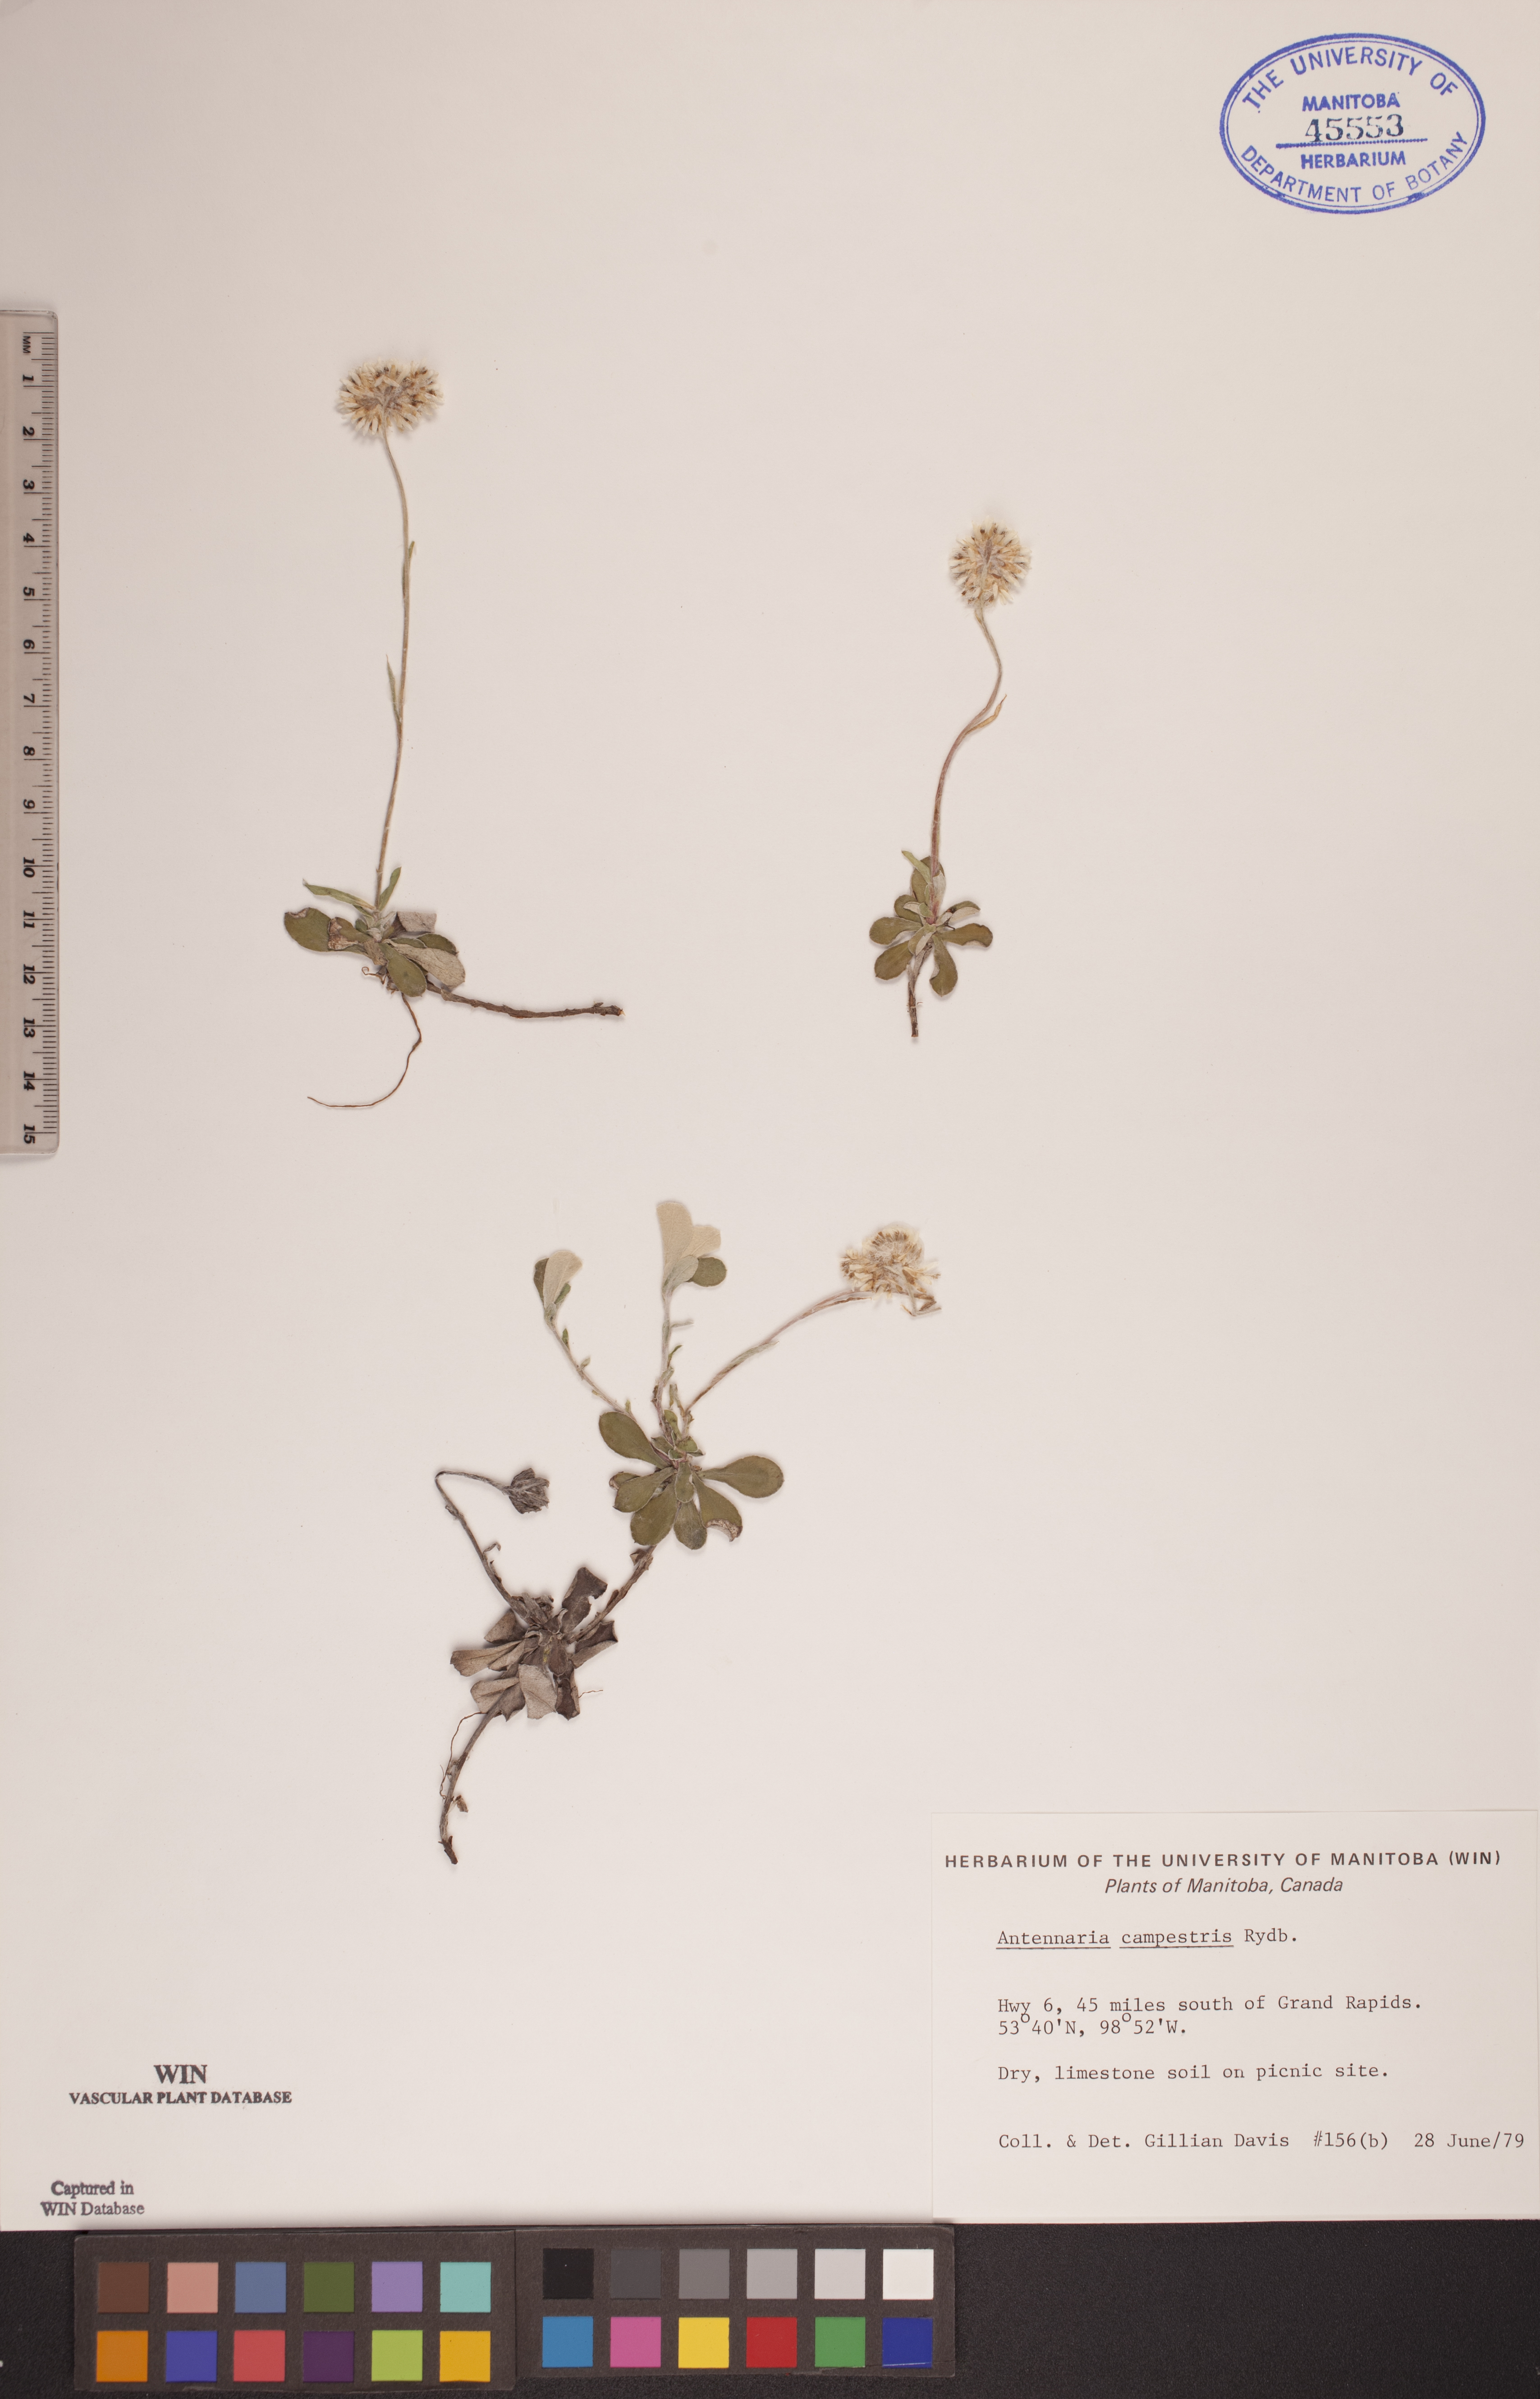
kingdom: Plantae
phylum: Tracheophyta
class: Magnoliopsida
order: Asterales
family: Asteraceae
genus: Antennaria
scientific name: Antennaria neglecta
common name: Field pussytoes
